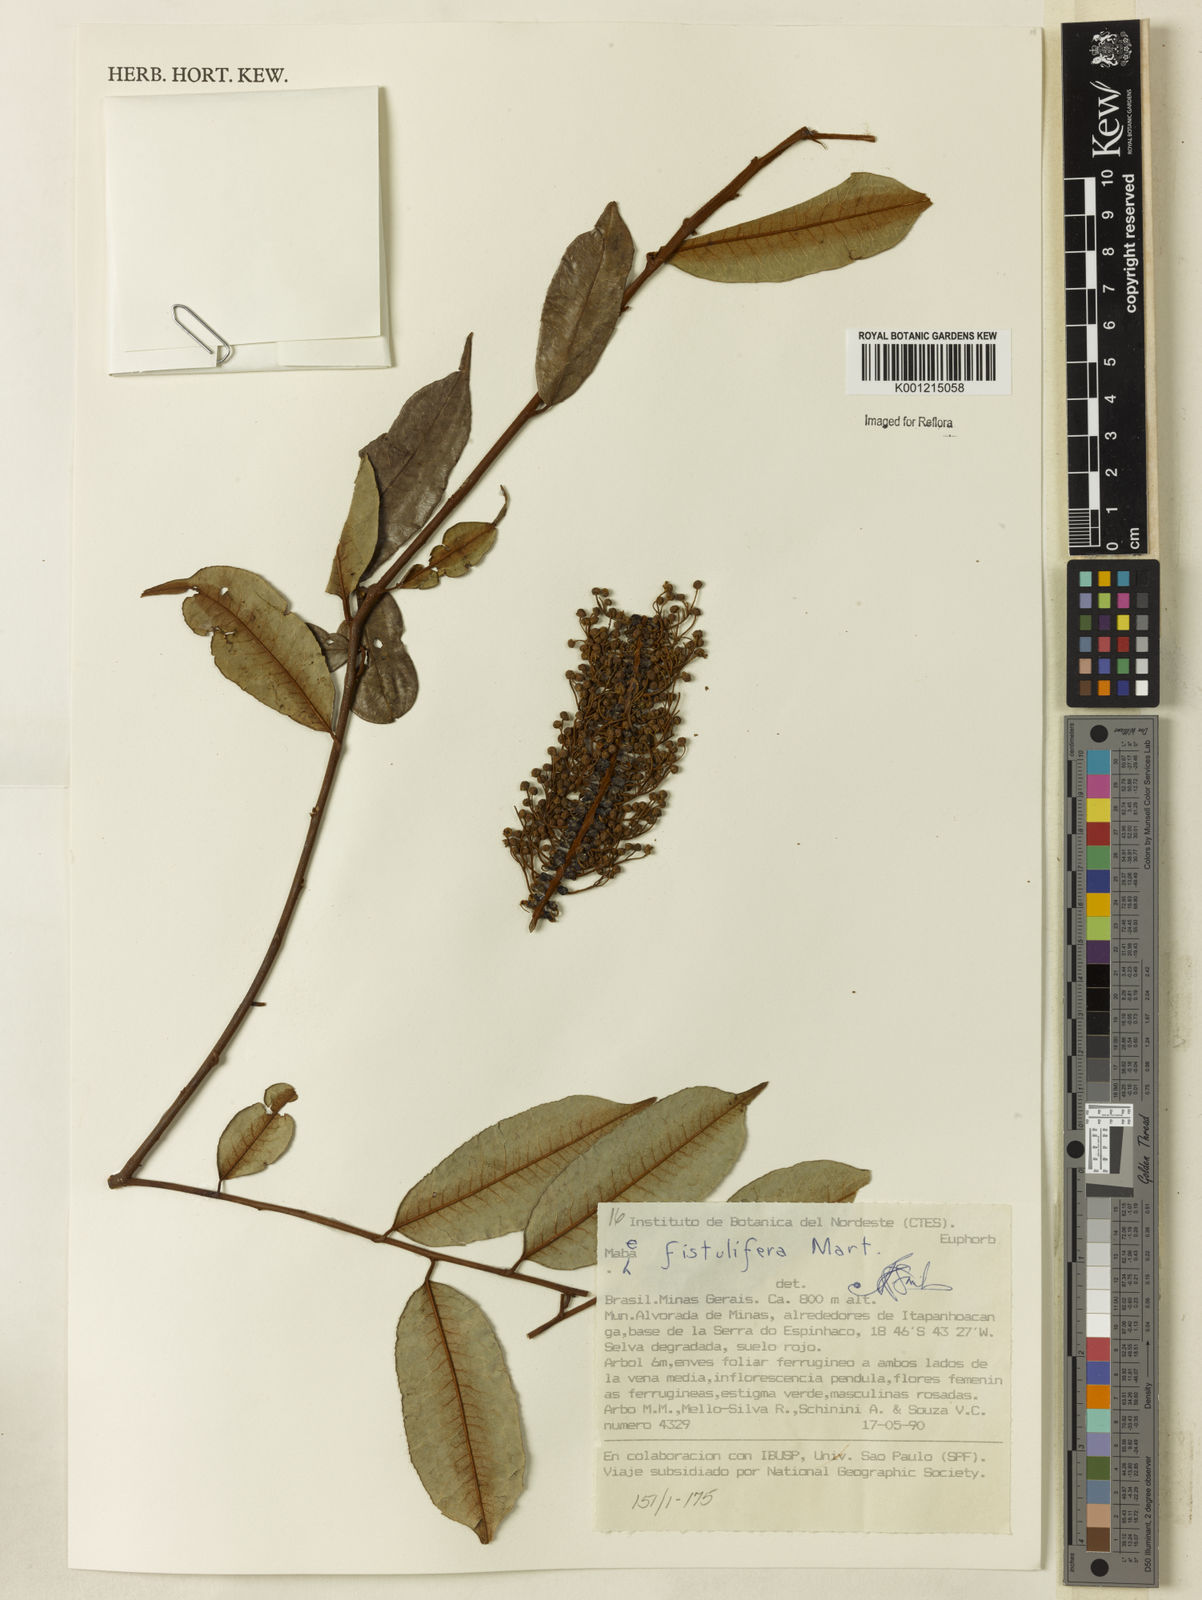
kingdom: Plantae
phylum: Tracheophyta
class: Magnoliopsida
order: Malpighiales
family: Euphorbiaceae
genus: Mabea
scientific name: Mabea fistulifera
